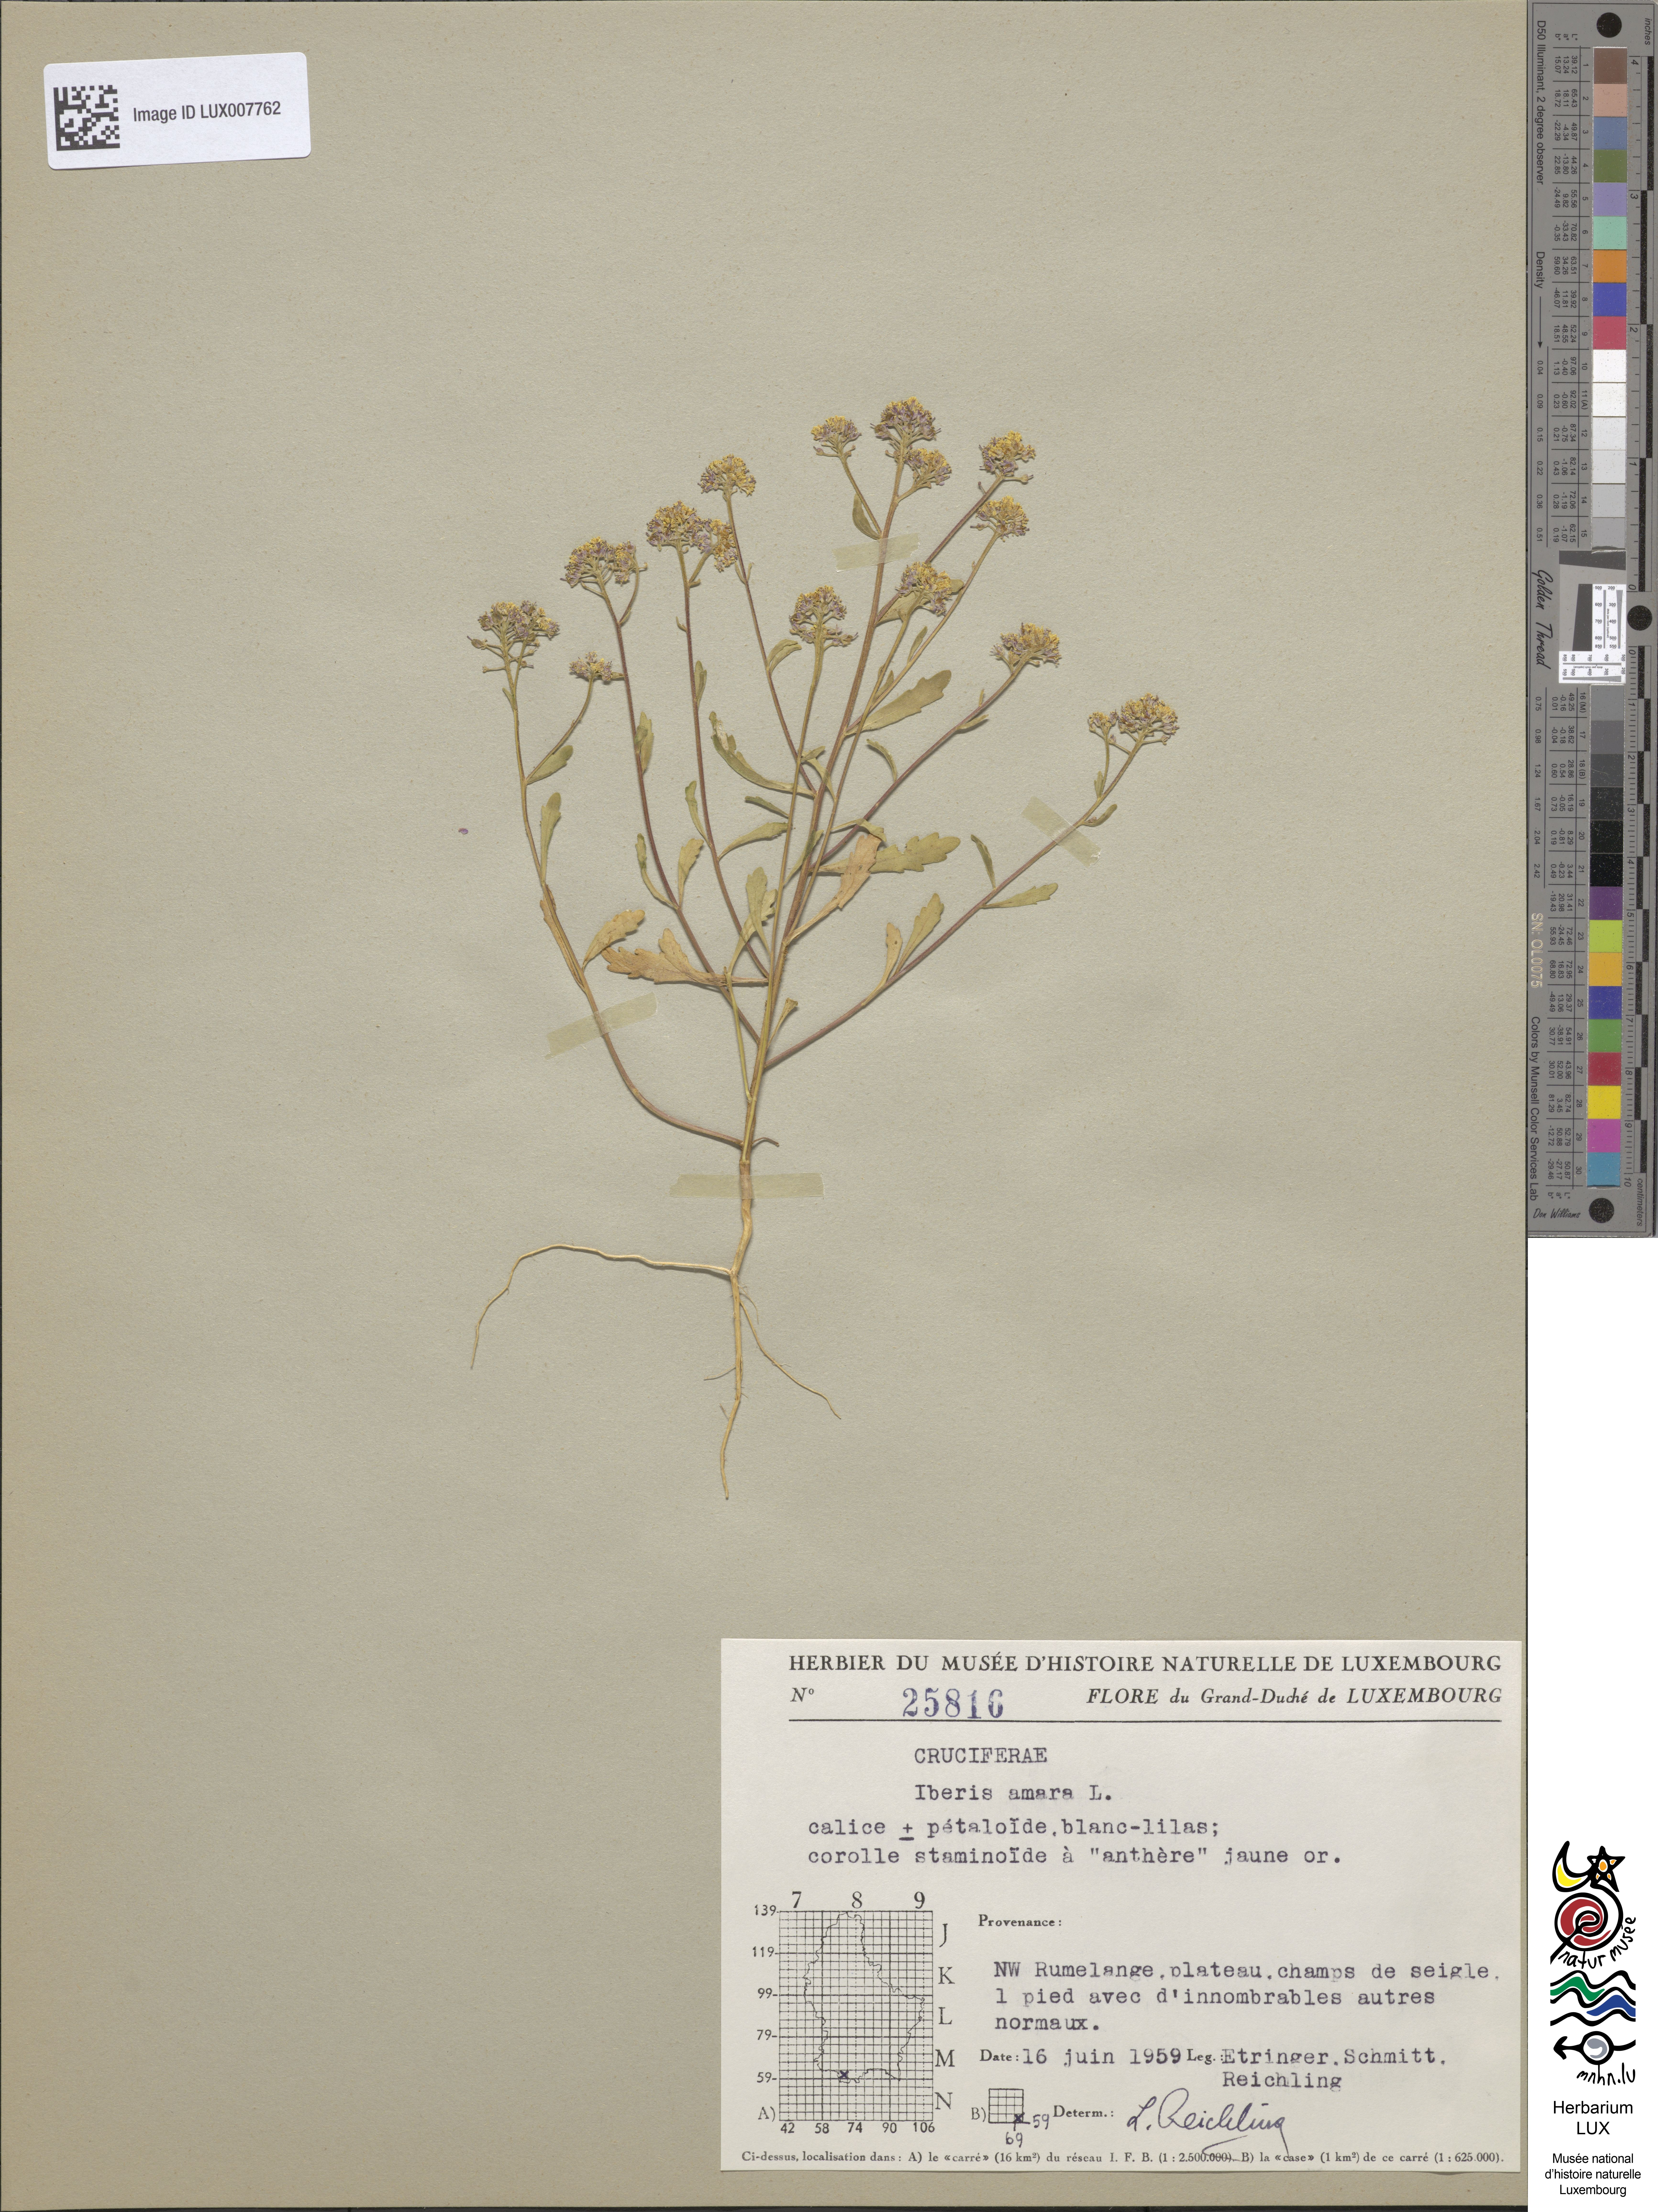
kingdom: Plantae
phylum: Tracheophyta
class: Magnoliopsida
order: Brassicales
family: Brassicaceae
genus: Iberis
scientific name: Iberis amara
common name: Annual candytuft
